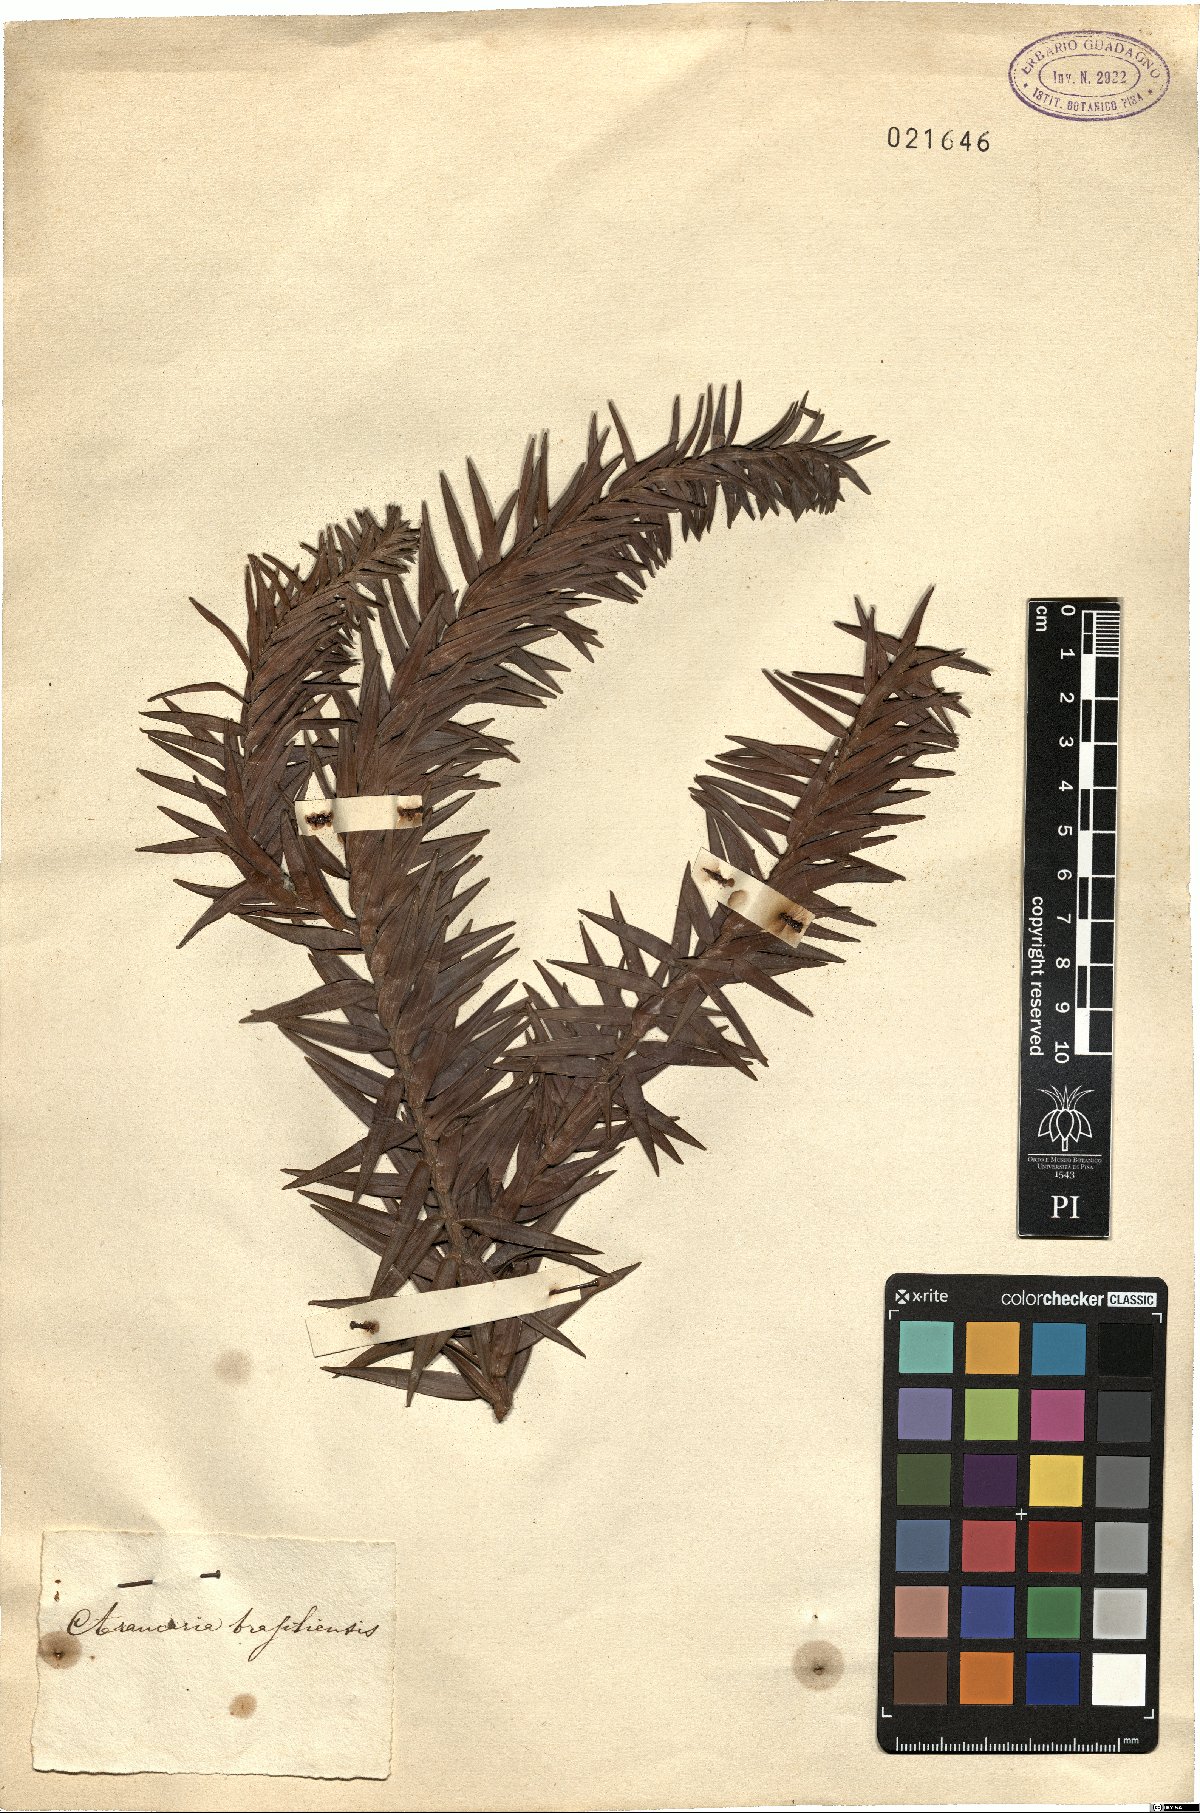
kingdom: Plantae
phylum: Tracheophyta
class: Pinopsida
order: Pinales
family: Araucariaceae
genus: Araucaria
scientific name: Araucaria angustifolia
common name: Candelabra tree
